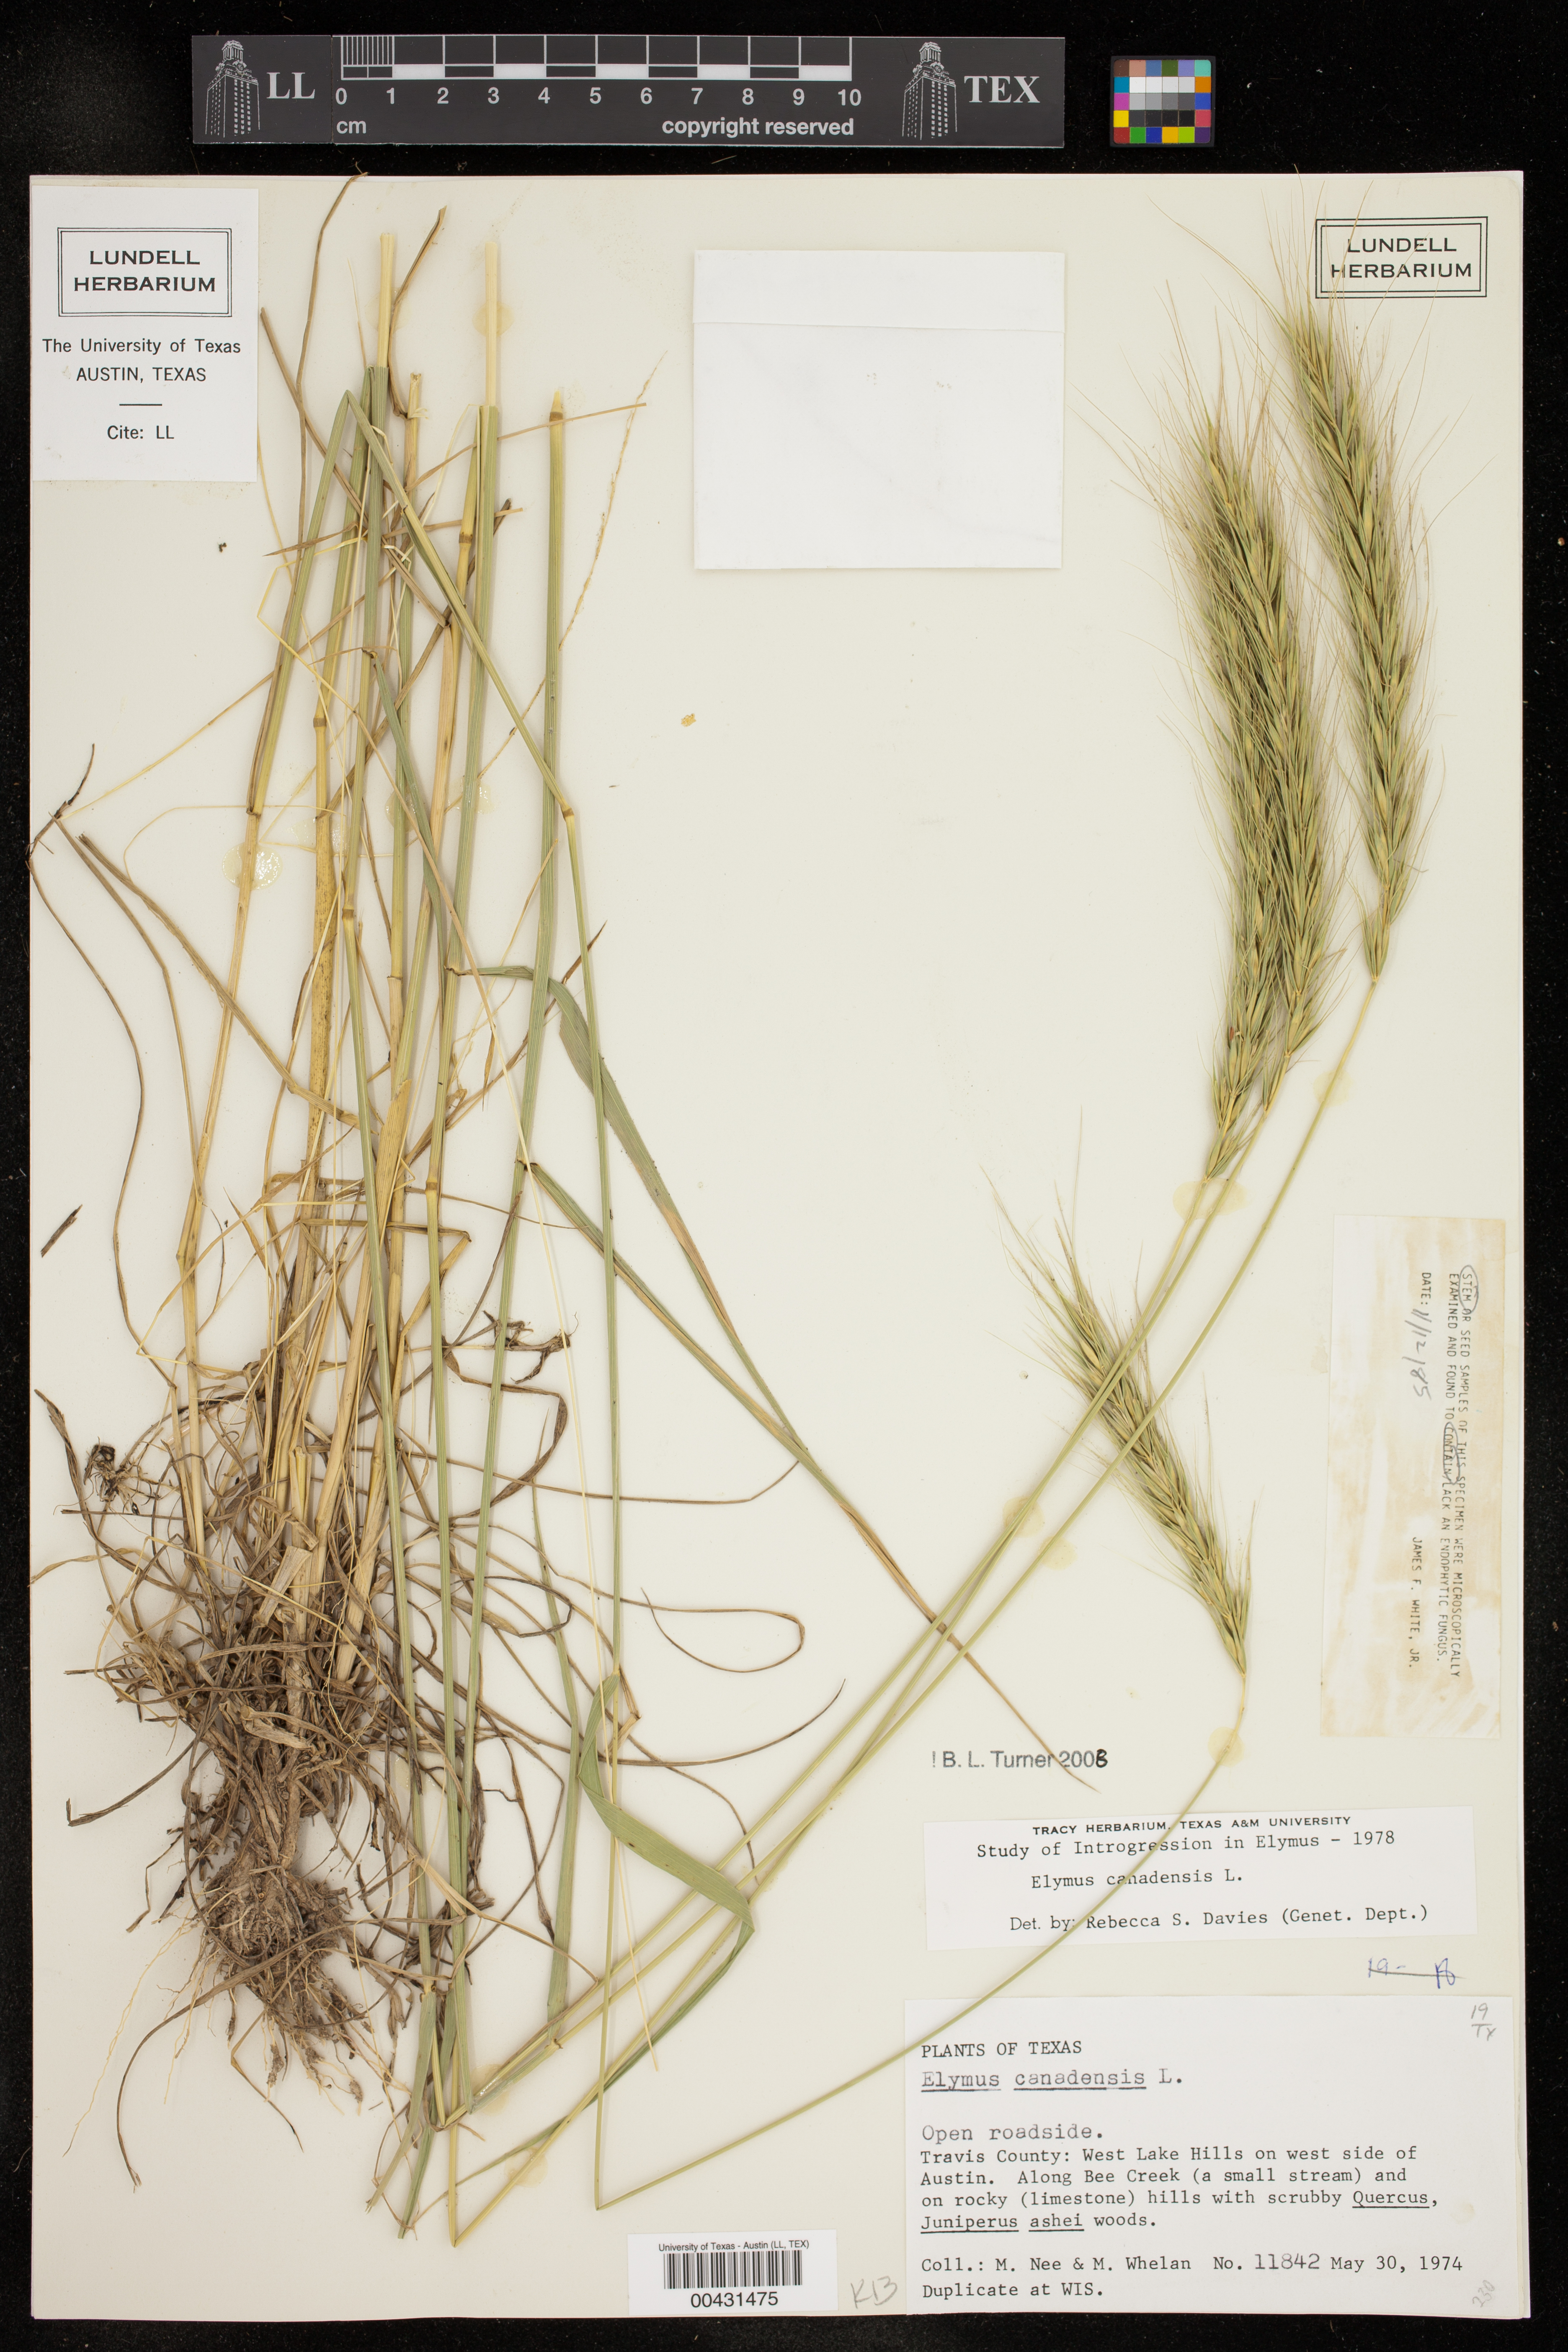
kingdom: Plantae
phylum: Tracheophyta
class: Liliopsida
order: Poales
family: Poaceae
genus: Elymus
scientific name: Elymus canadensis
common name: Canada wild rye
